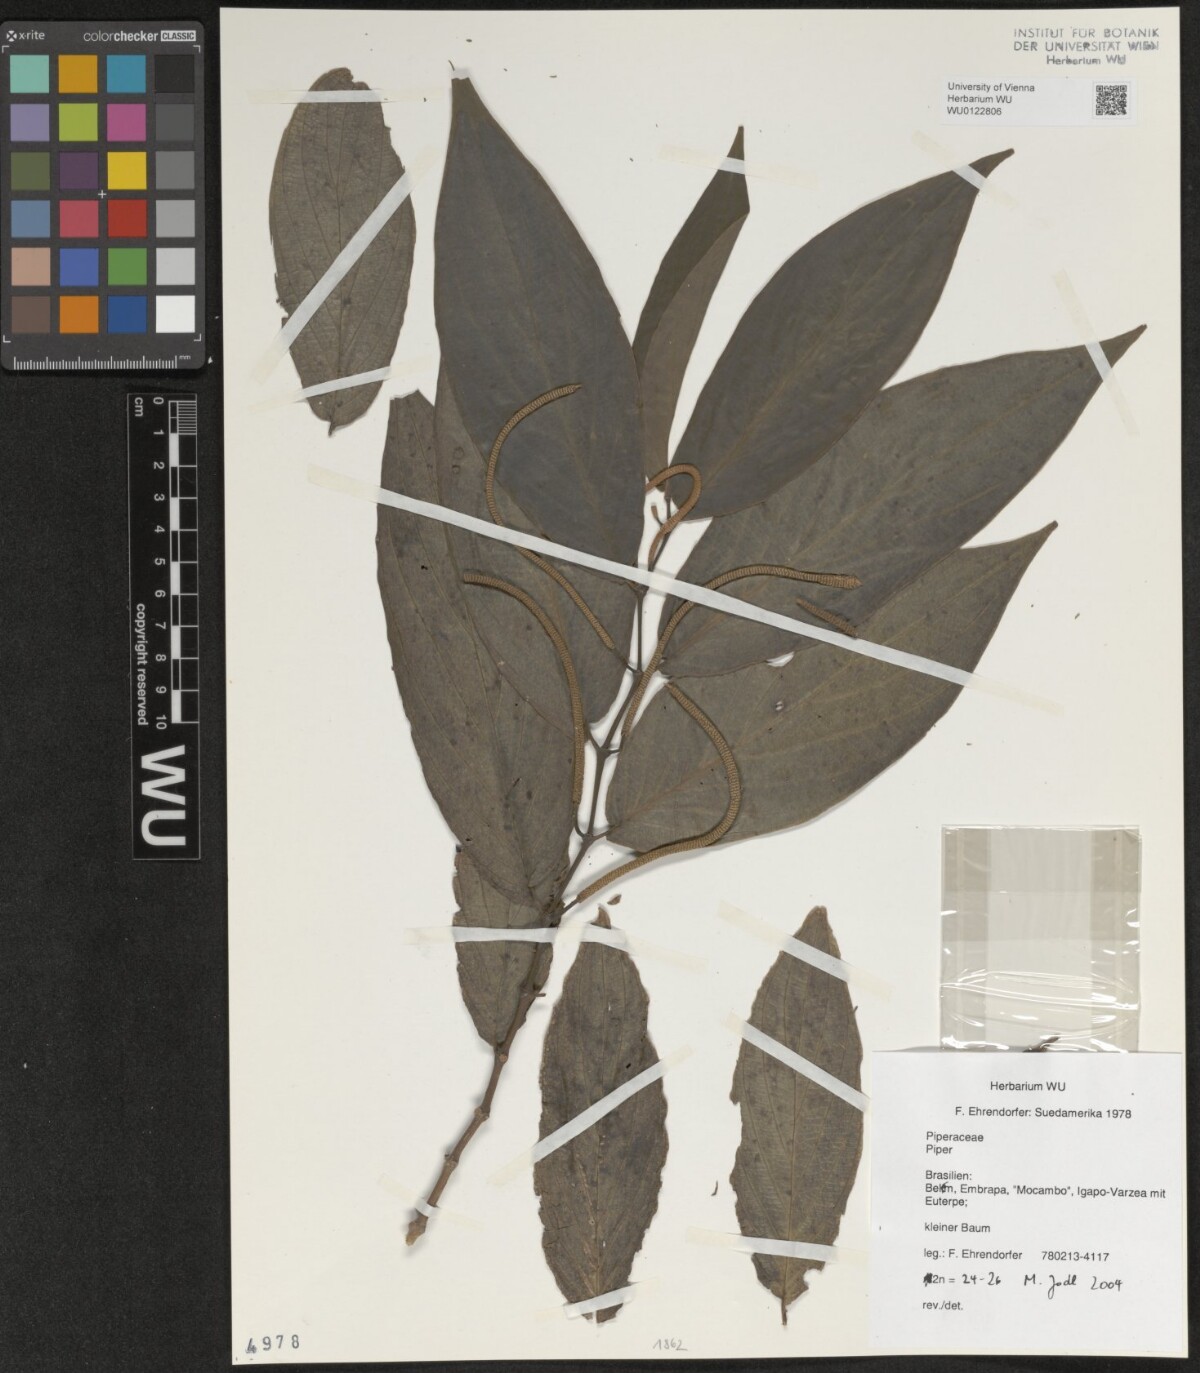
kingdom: Plantae
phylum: Tracheophyta
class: Magnoliopsida
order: Piperales
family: Piperaceae
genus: Piper
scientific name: Piper
